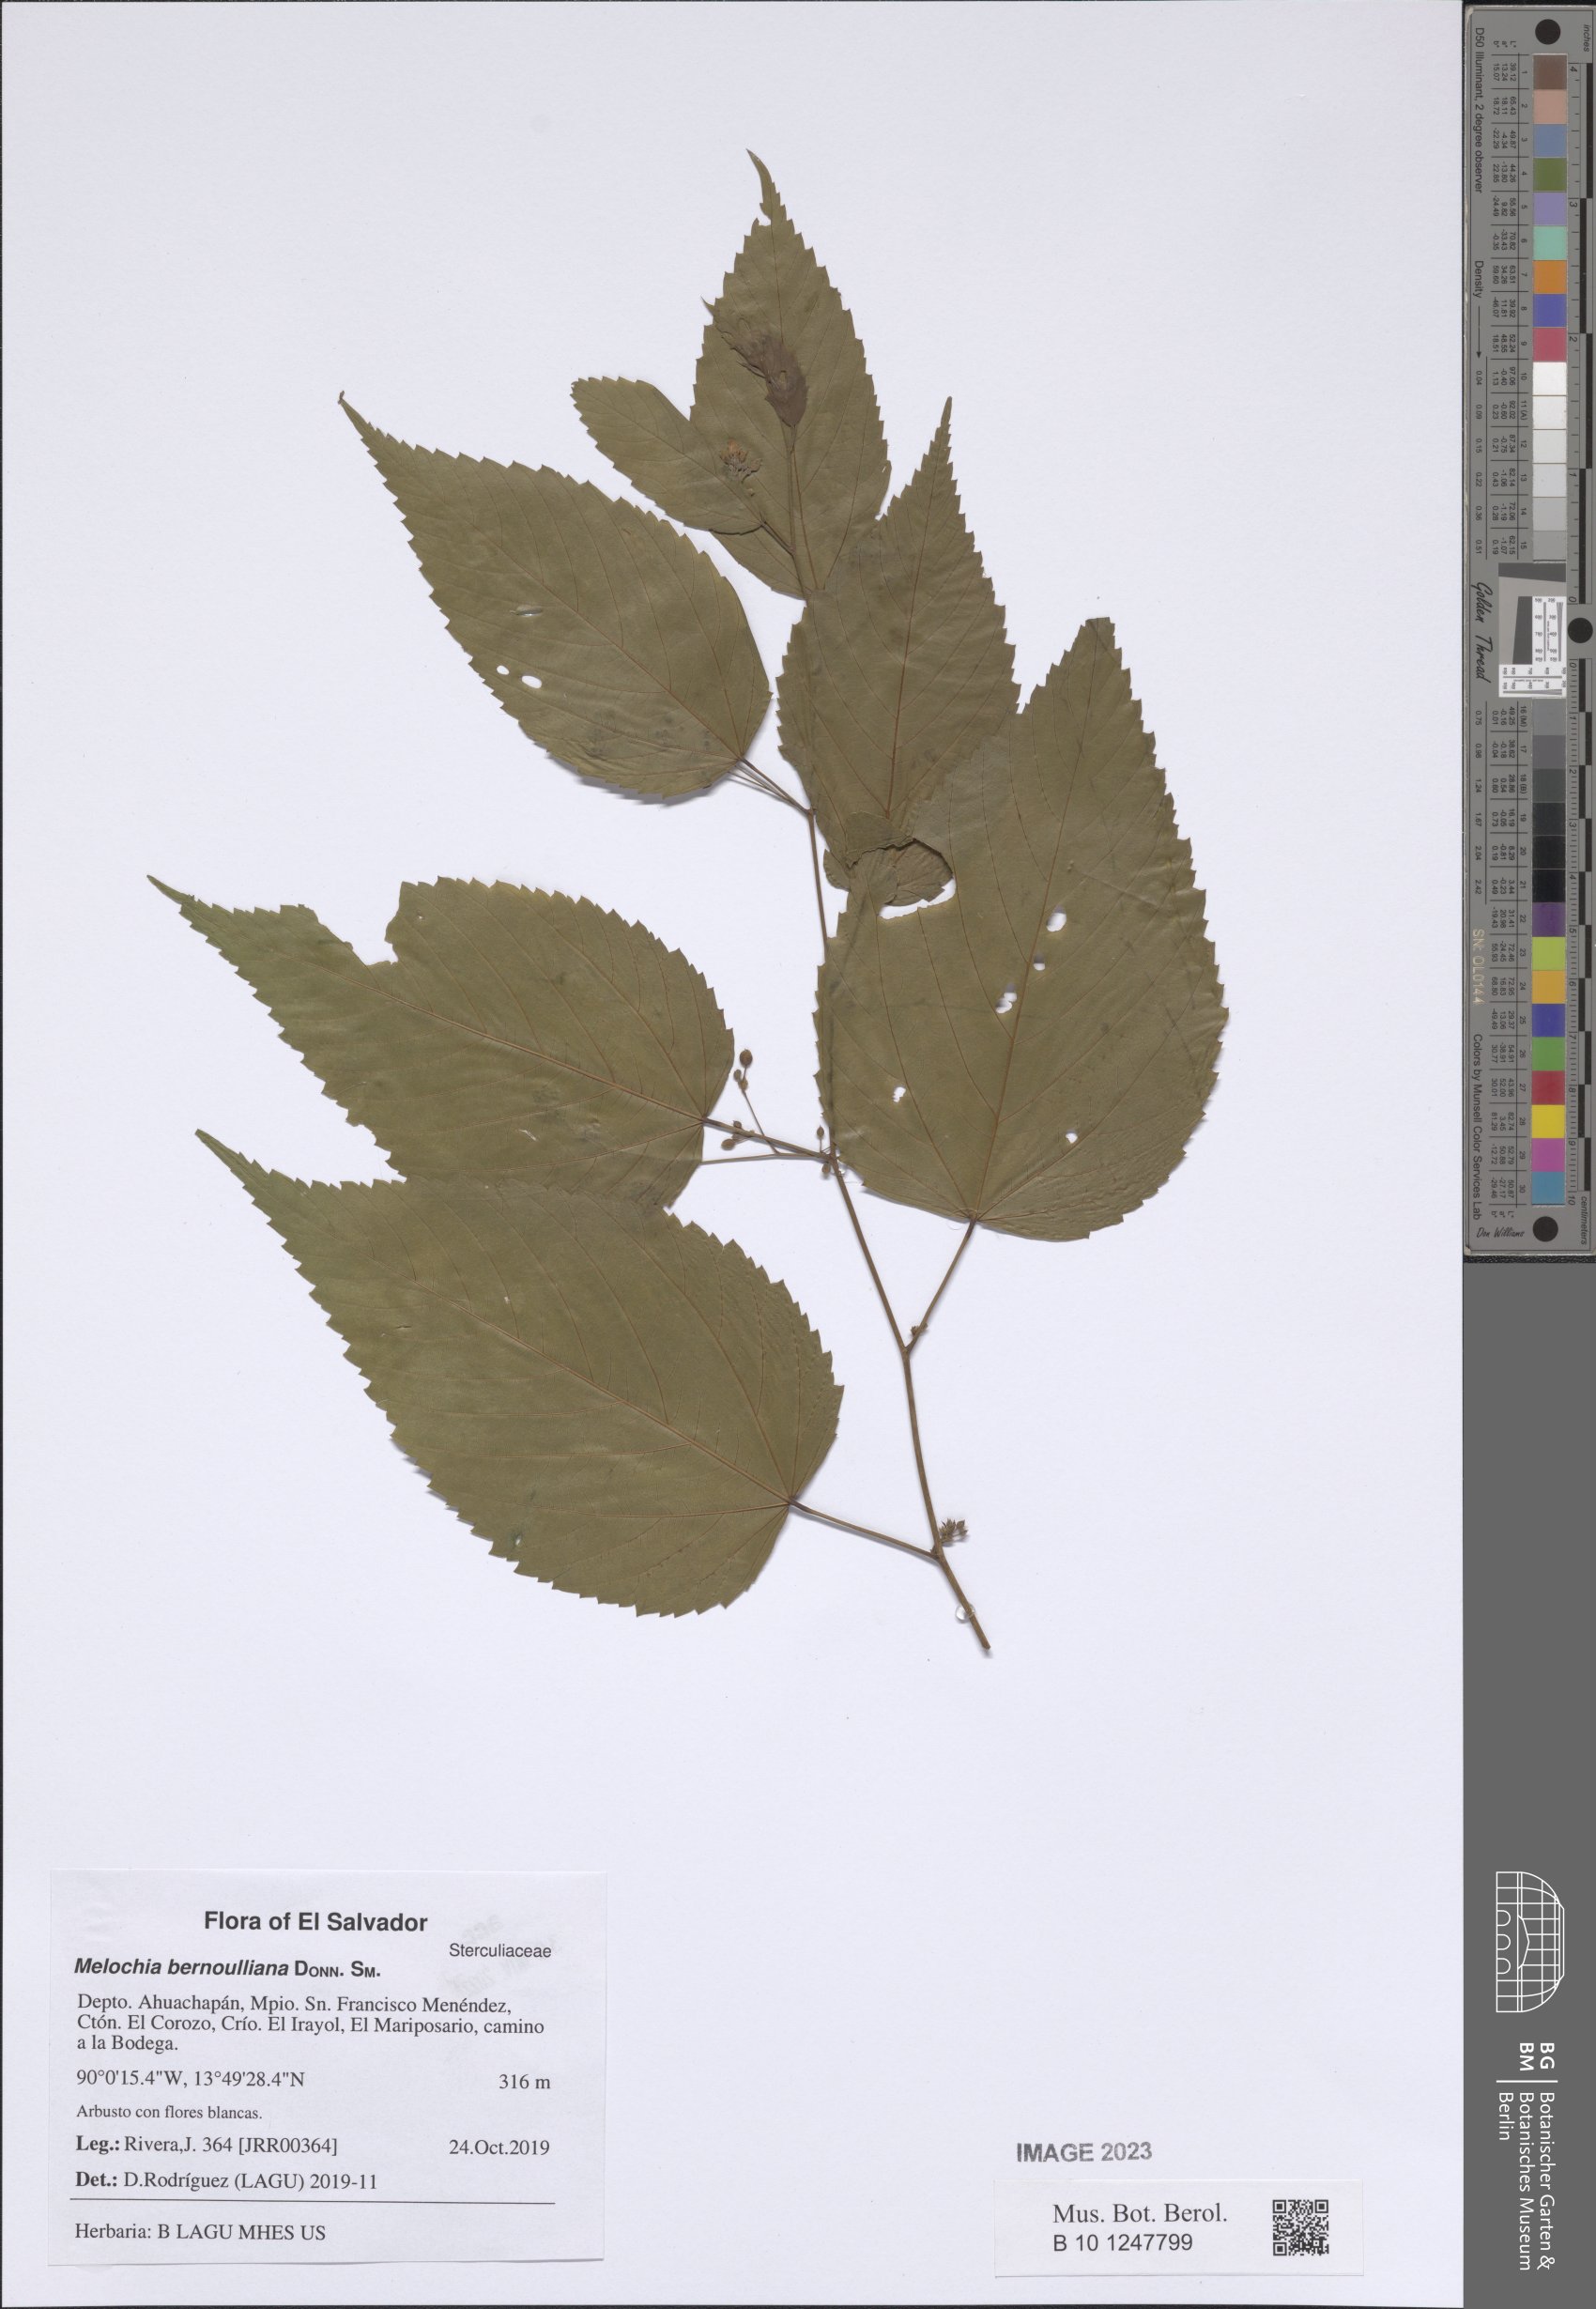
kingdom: Plantae
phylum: Tracheophyta
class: Magnoliopsida
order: Malvales
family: Malvaceae
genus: Melochia
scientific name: Melochia bernoulliana
